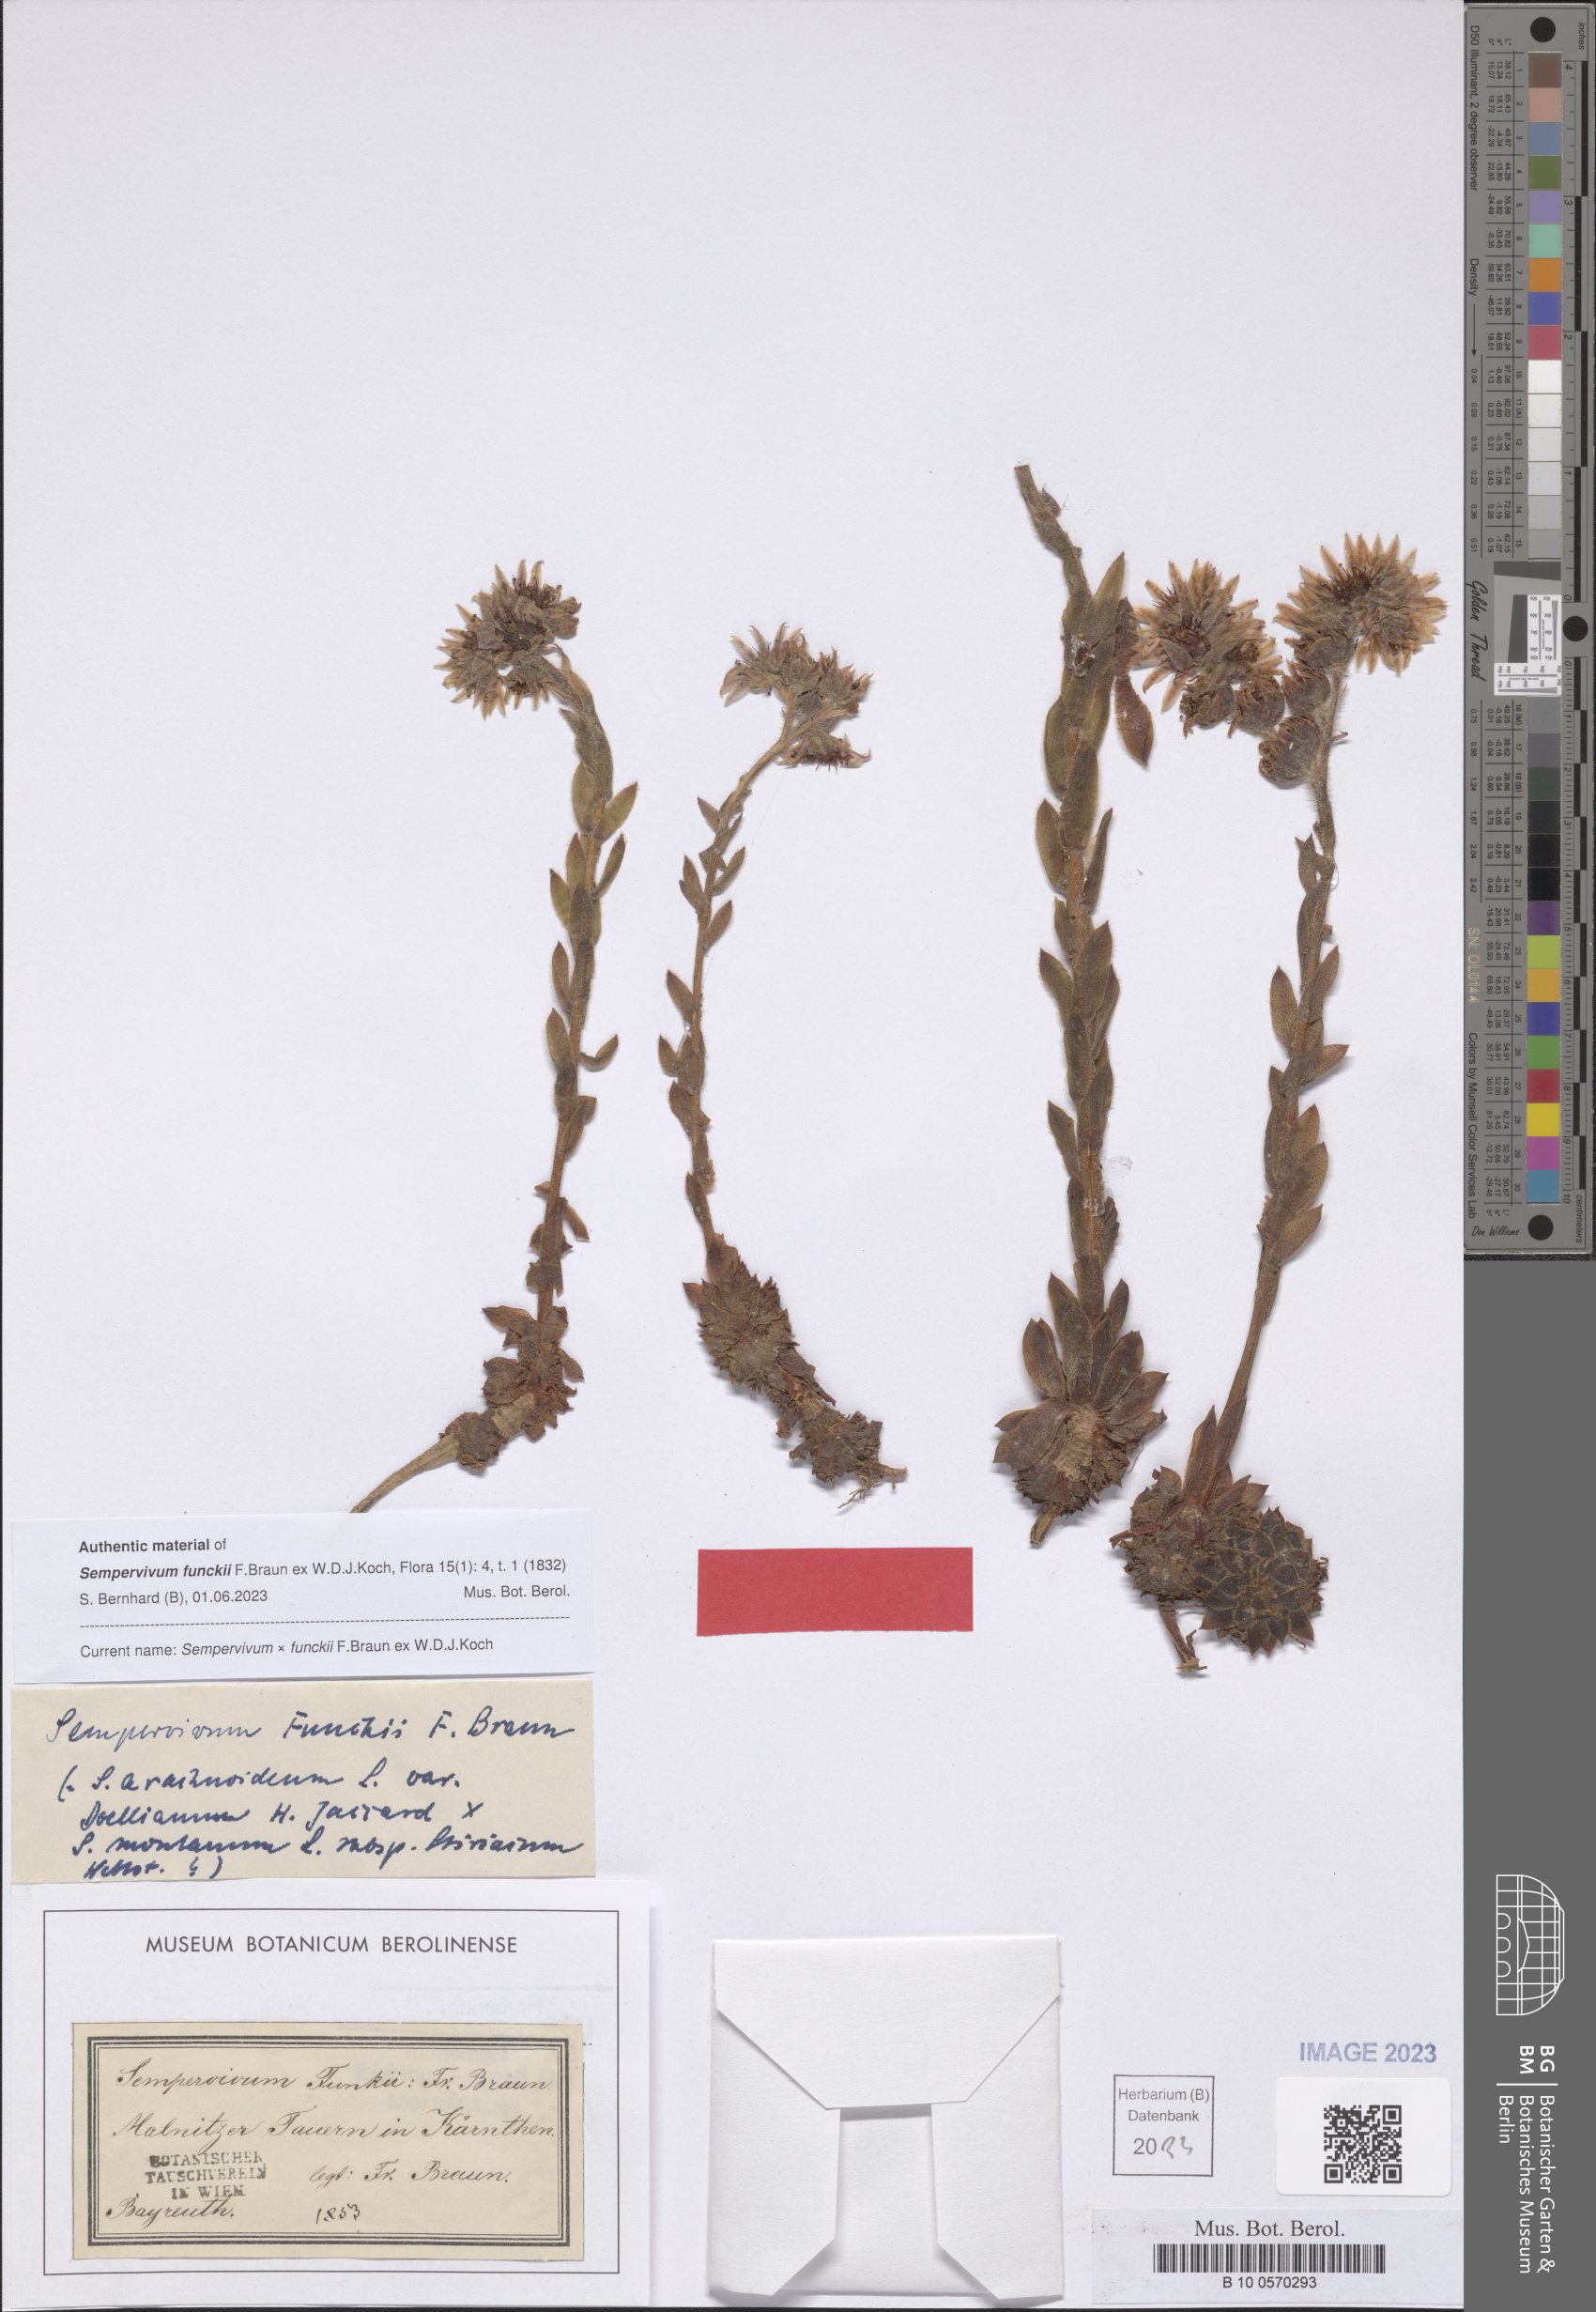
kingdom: Plantae
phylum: Tracheophyta
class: Magnoliopsida
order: Saxifragales
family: Crassulaceae
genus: Sempervivum
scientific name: Sempervivum funckii
